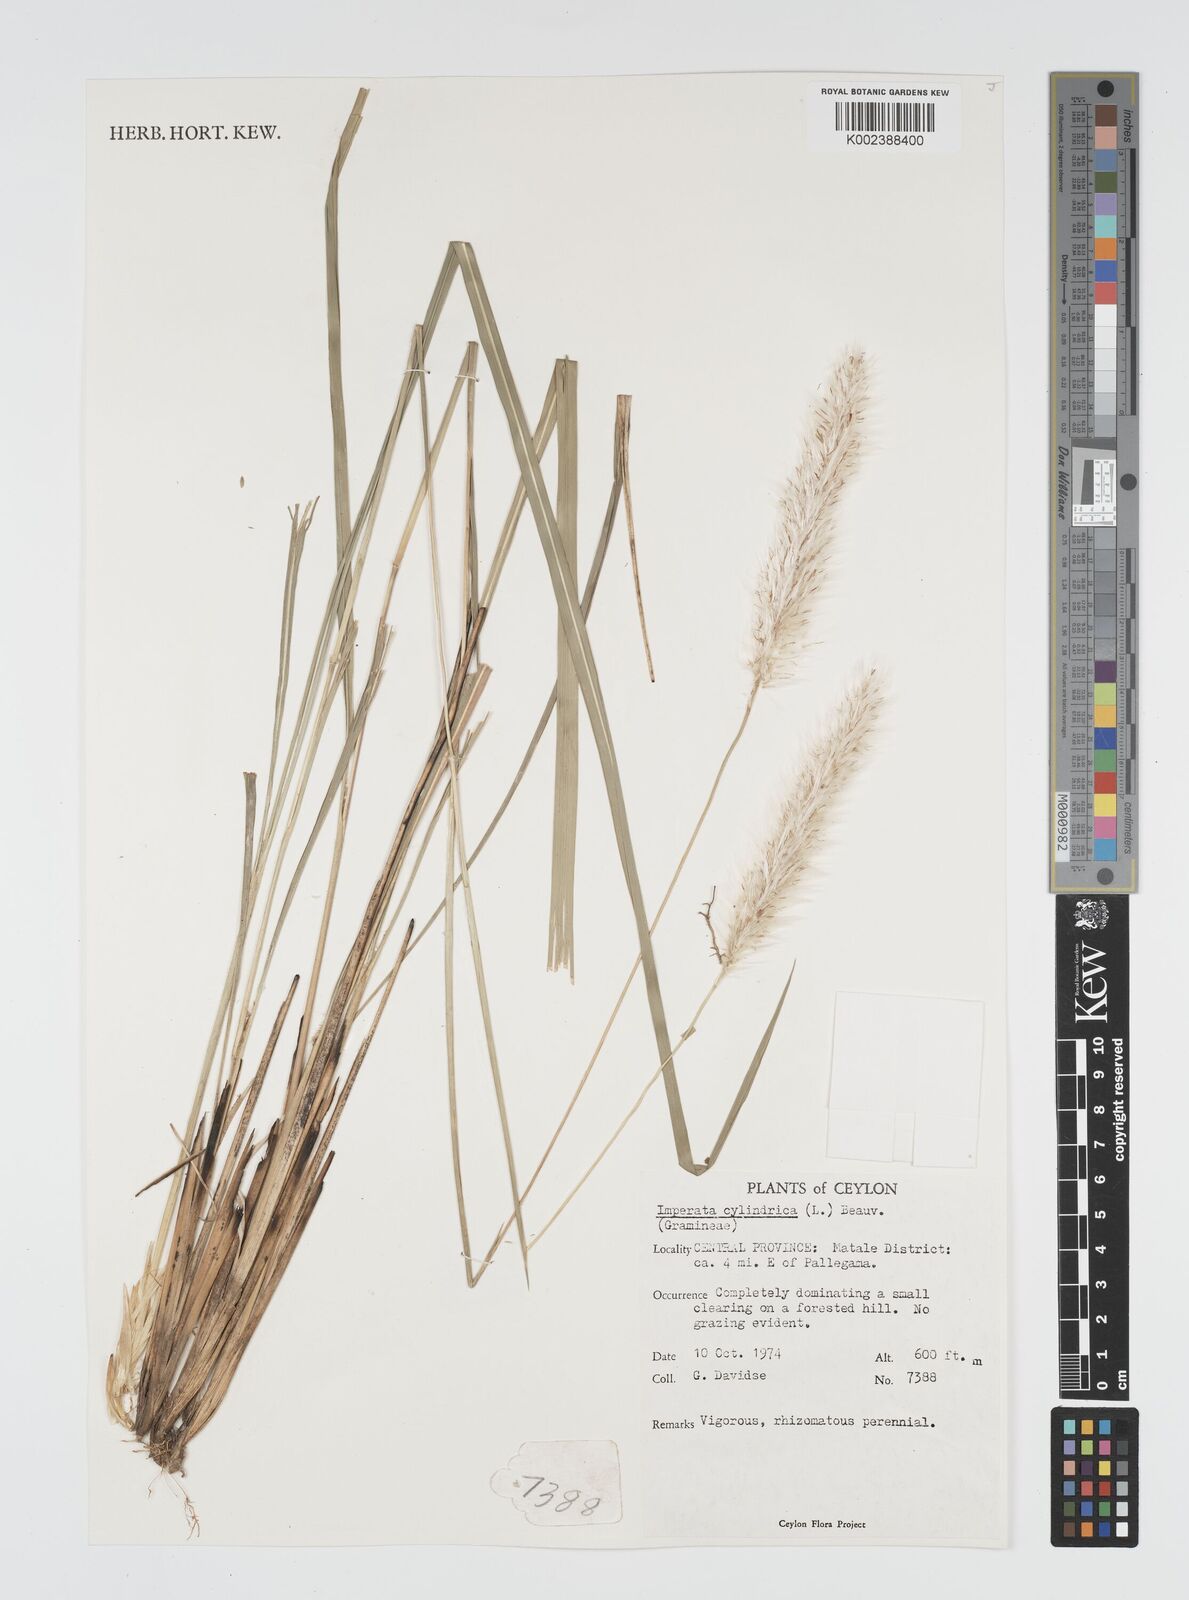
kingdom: Plantae
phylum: Tracheophyta
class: Liliopsida
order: Poales
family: Poaceae
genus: Imperata
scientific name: Imperata cylindrica
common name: Cogongrass
